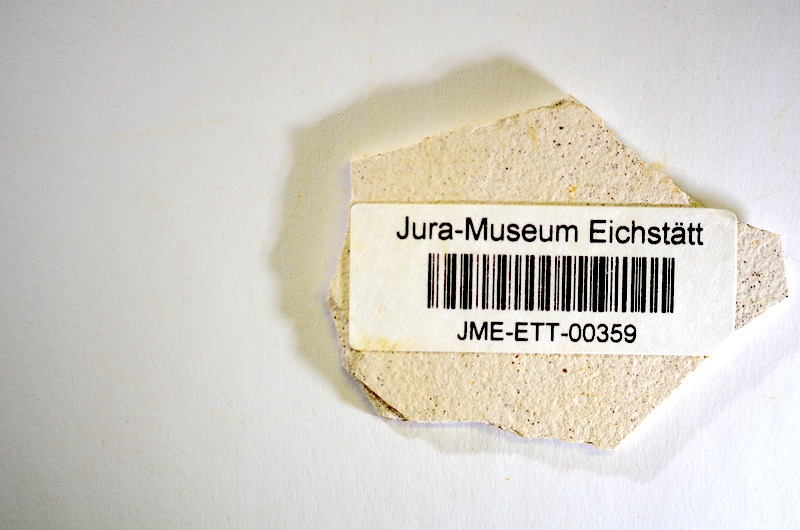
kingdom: Animalia
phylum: Chordata
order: Salmoniformes
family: Orthogonikleithridae
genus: Orthogonikleithrus
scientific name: Orthogonikleithrus hoelli
